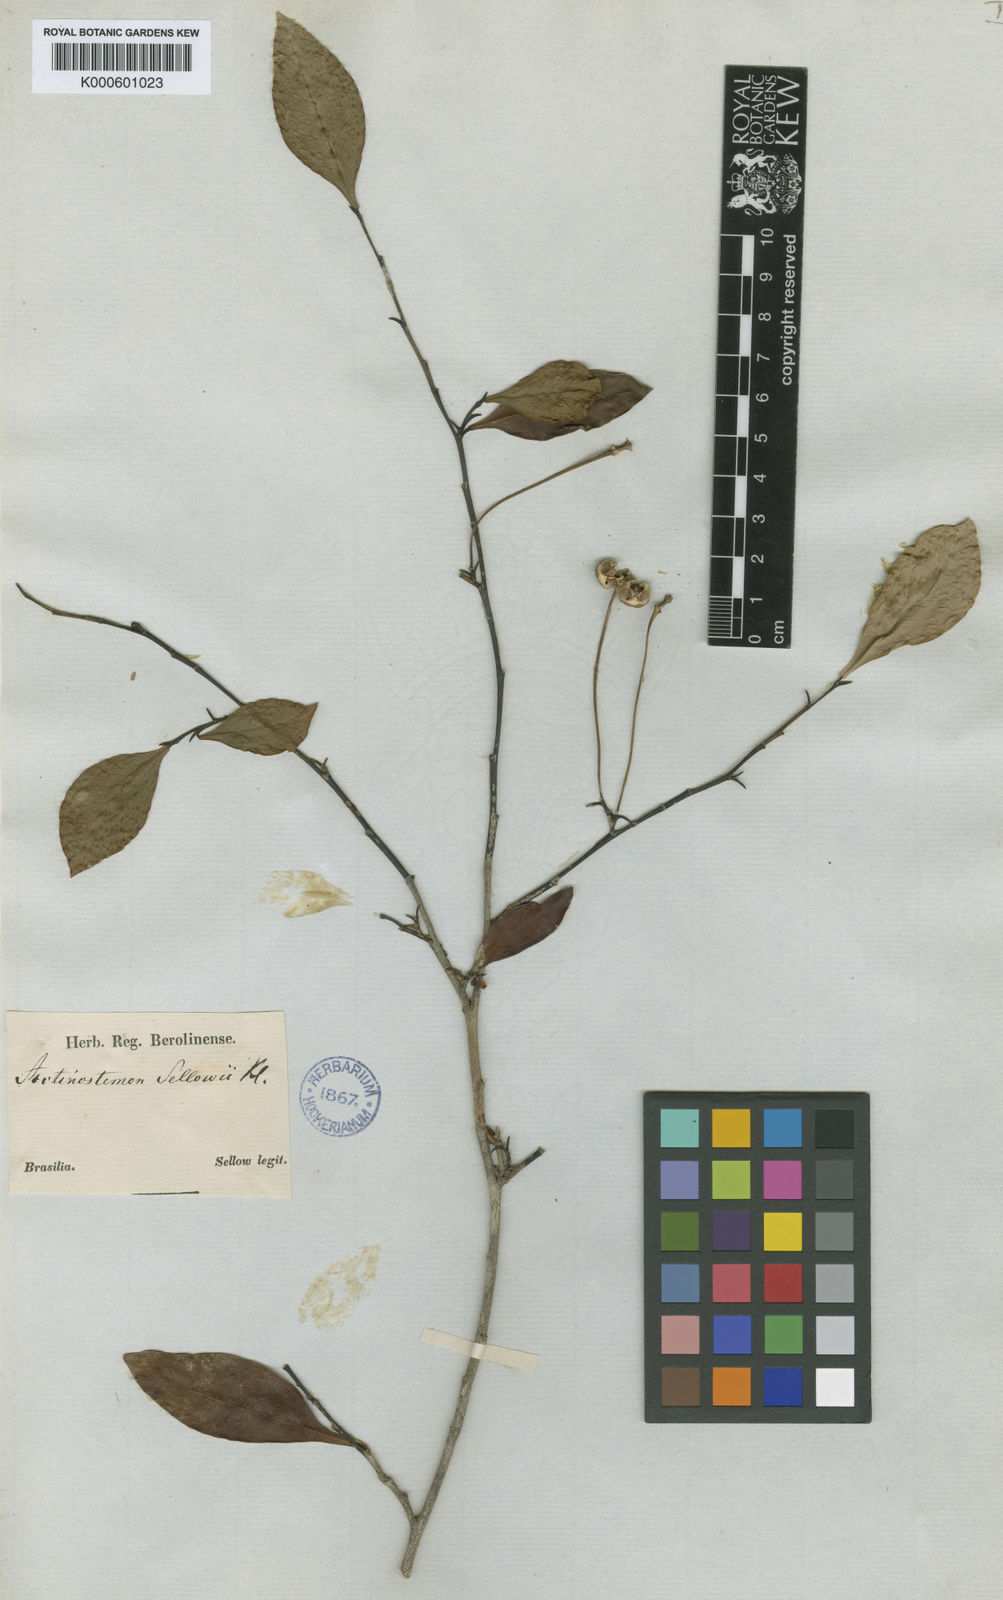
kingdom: Plantae
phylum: Tracheophyta
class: Magnoliopsida
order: Malpighiales
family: Euphorbiaceae
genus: Actinostemon
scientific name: Actinostemon
